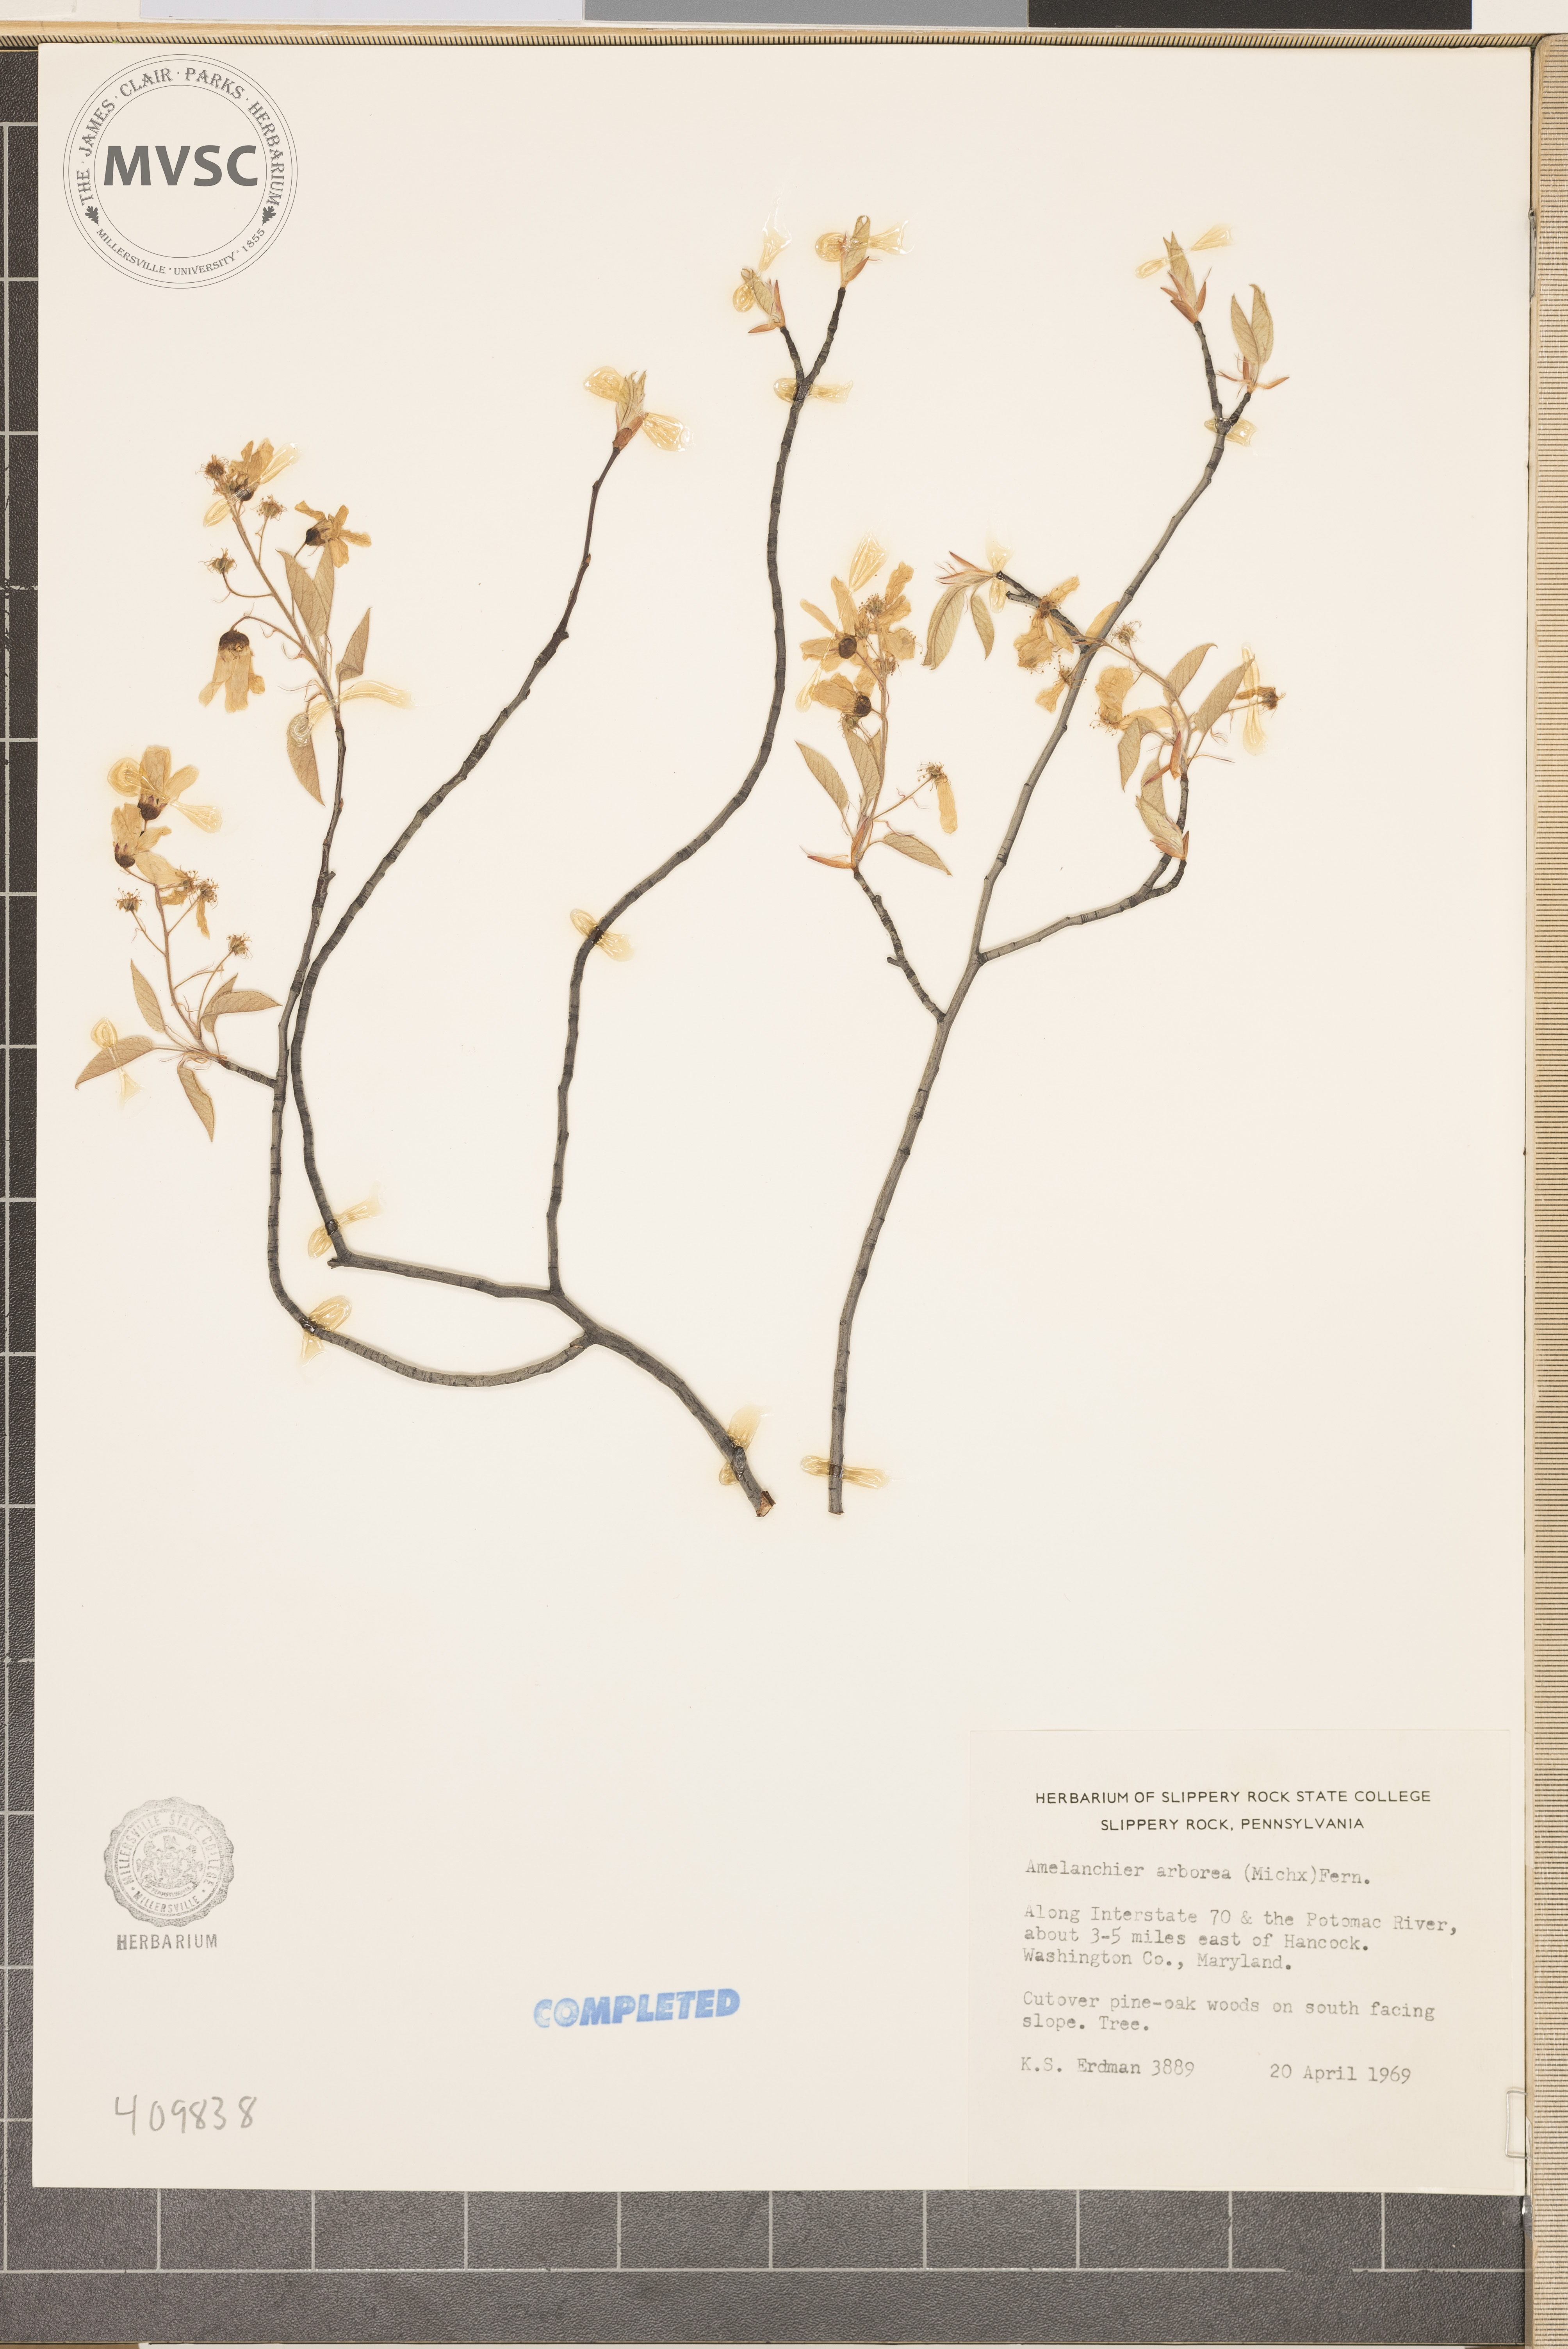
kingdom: Plantae
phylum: Tracheophyta
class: Magnoliopsida
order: Rosales
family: Rosaceae
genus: Amelanchier
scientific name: Amelanchier arborea
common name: Downy serviceberry
